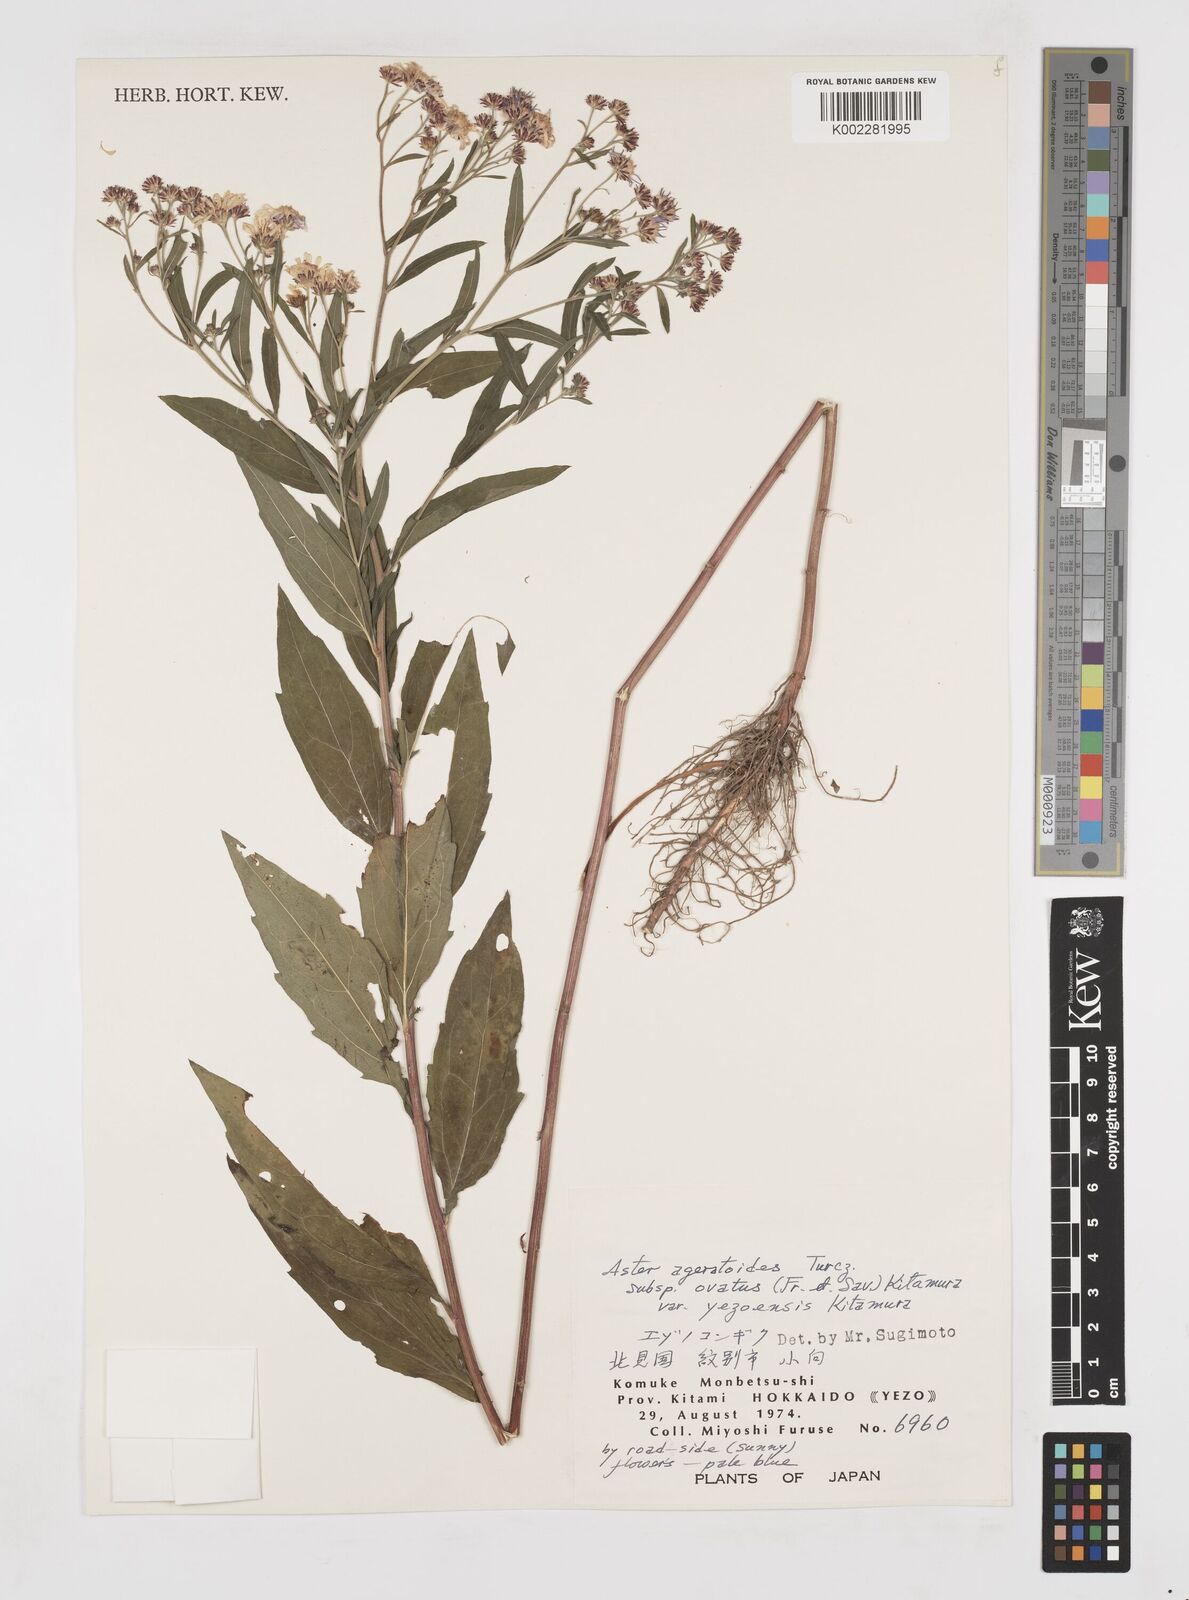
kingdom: Plantae
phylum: Tracheophyta
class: Magnoliopsida
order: Asterales
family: Asteraceae
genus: Aster
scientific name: Aster
